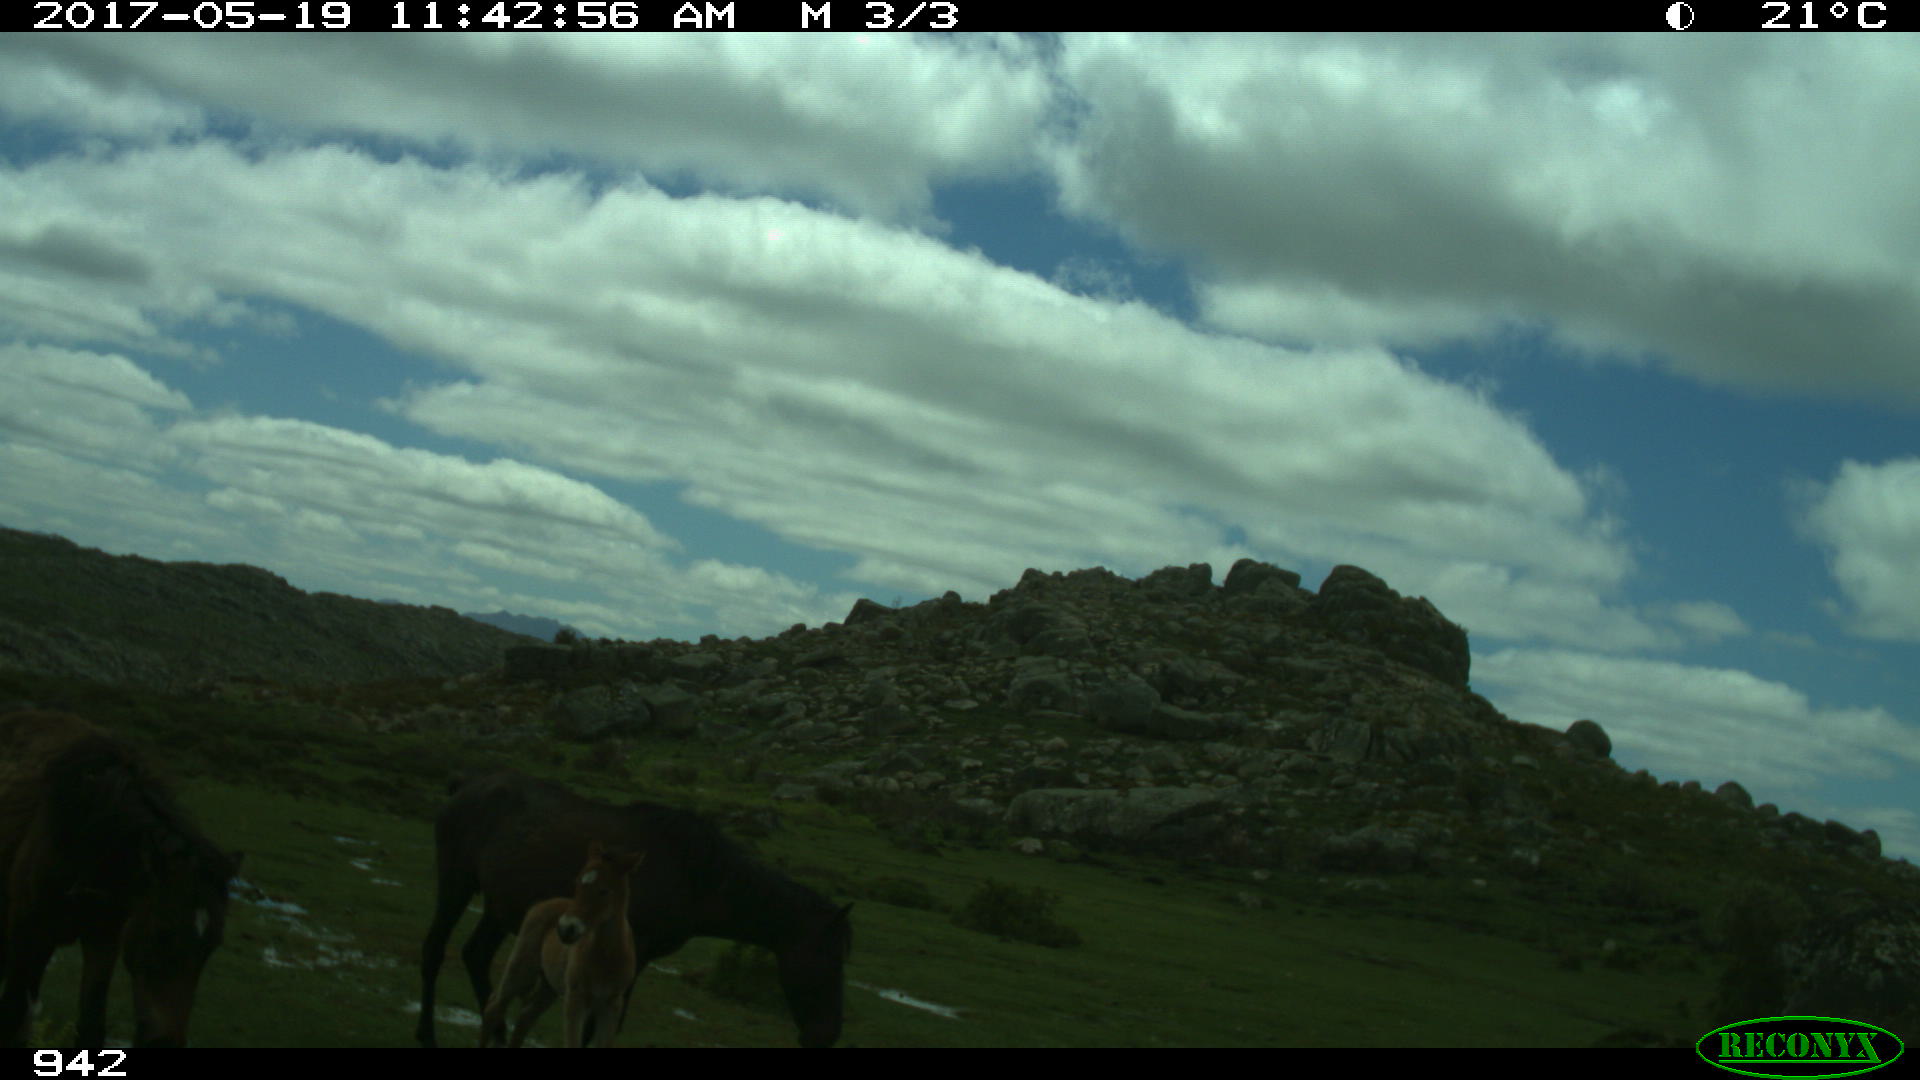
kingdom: Animalia
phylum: Chordata
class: Mammalia
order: Perissodactyla
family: Equidae
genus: Equus
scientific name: Equus caballus
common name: Horse
